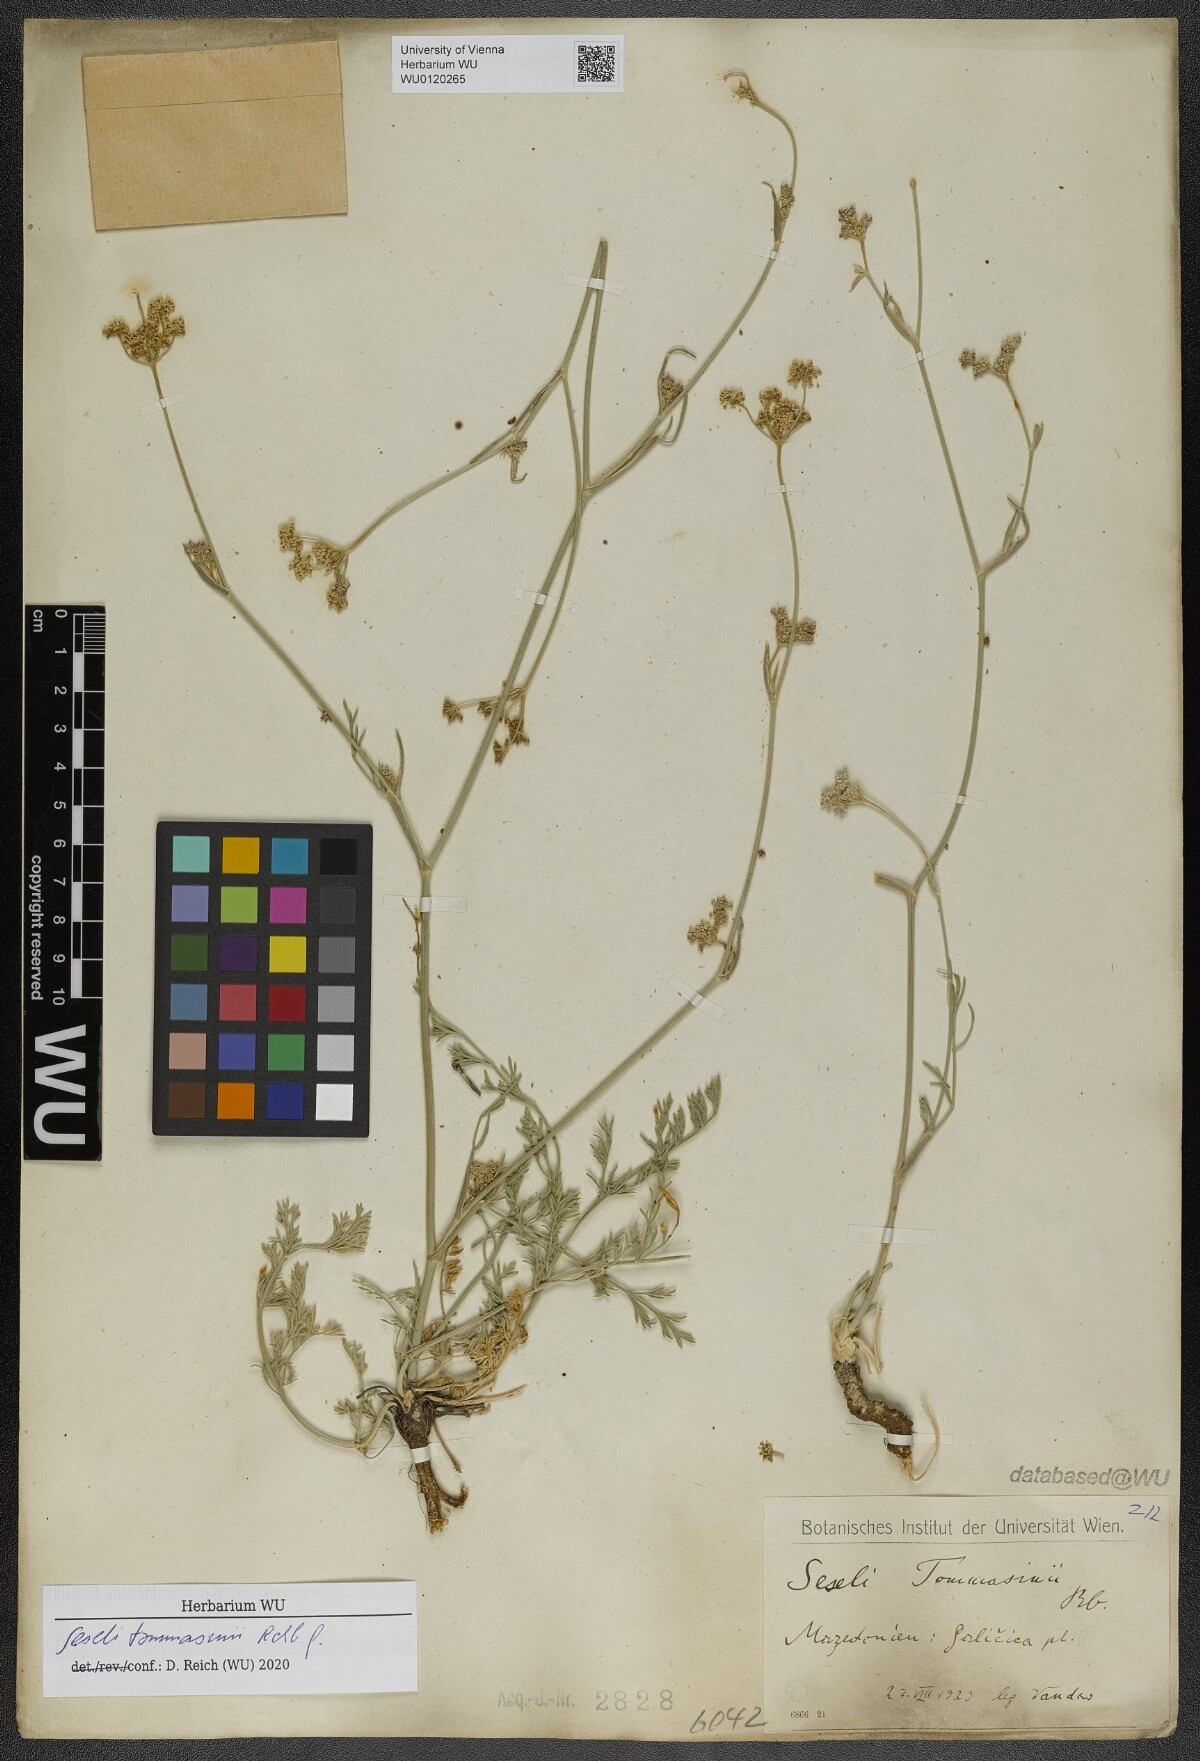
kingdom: Plantae
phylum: Tracheophyta
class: Magnoliopsida
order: Apiales
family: Apiaceae
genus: Seseli
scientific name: Seseli montanum
